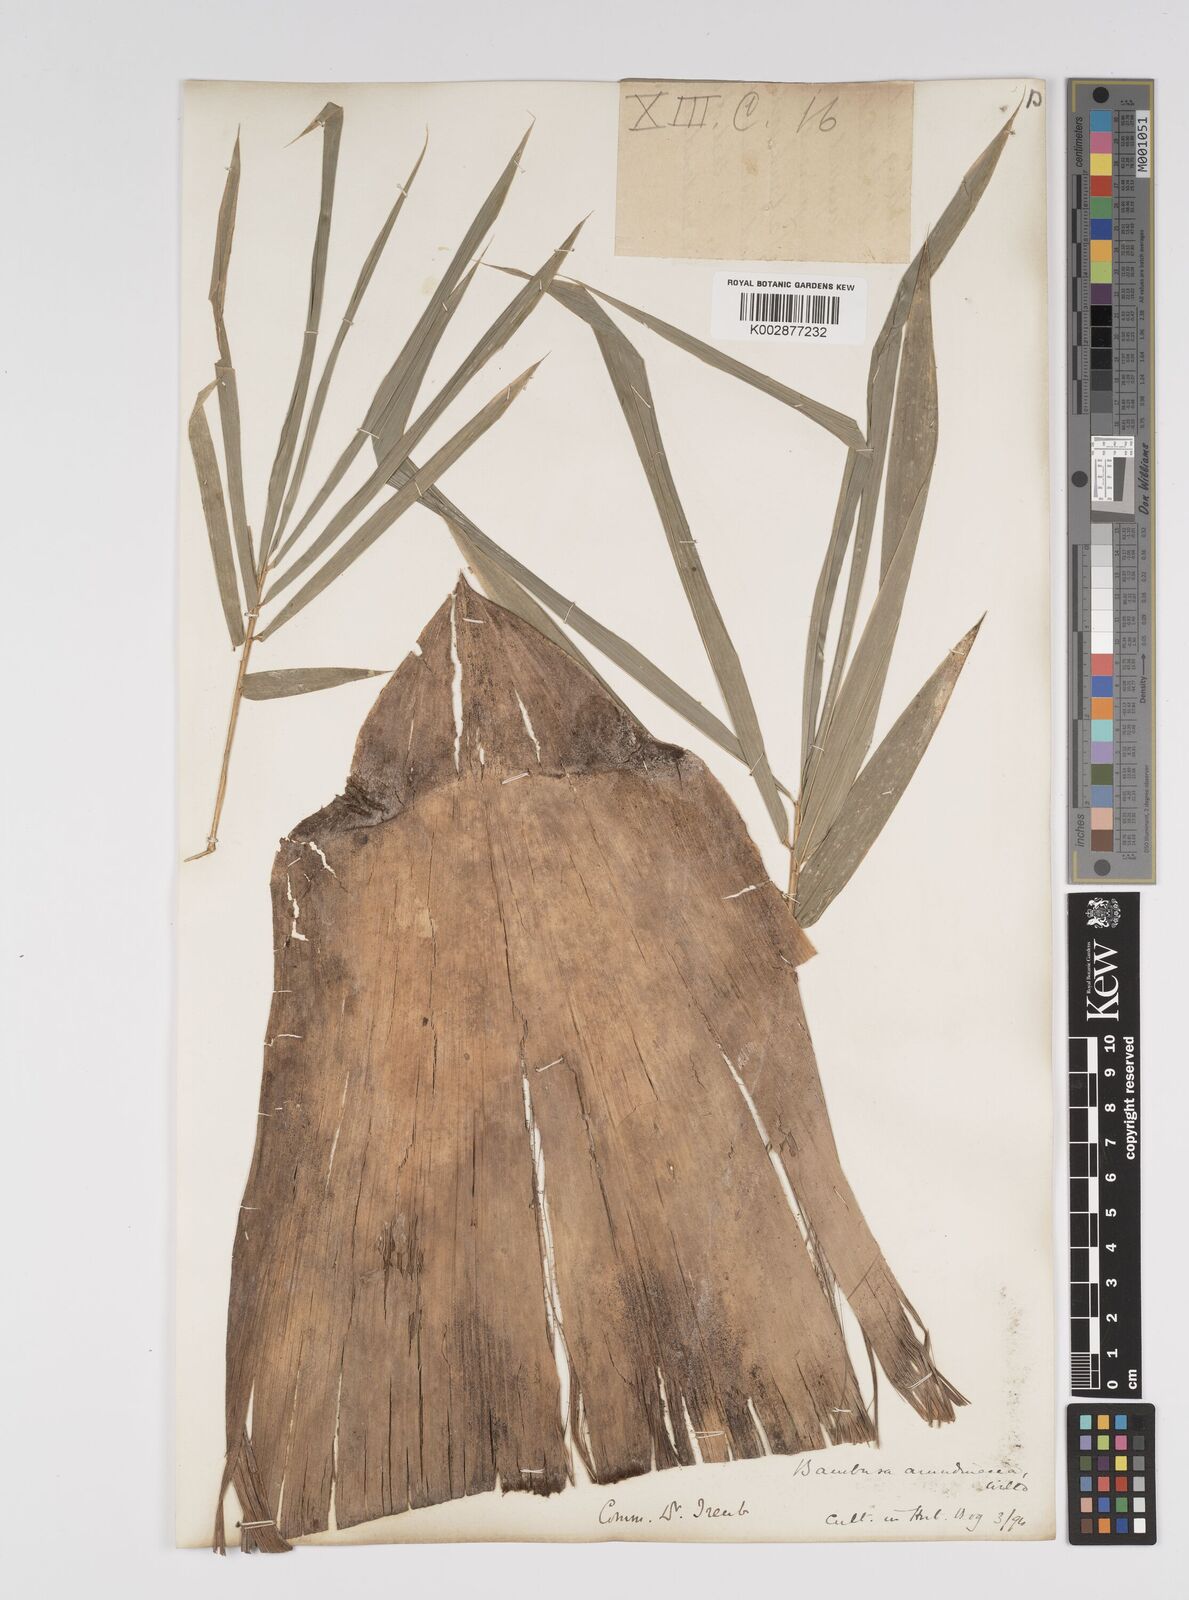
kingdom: Plantae
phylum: Tracheophyta
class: Liliopsida
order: Poales
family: Poaceae
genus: Bambusa
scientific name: Bambusa bambos
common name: Indian thorny bamboo
